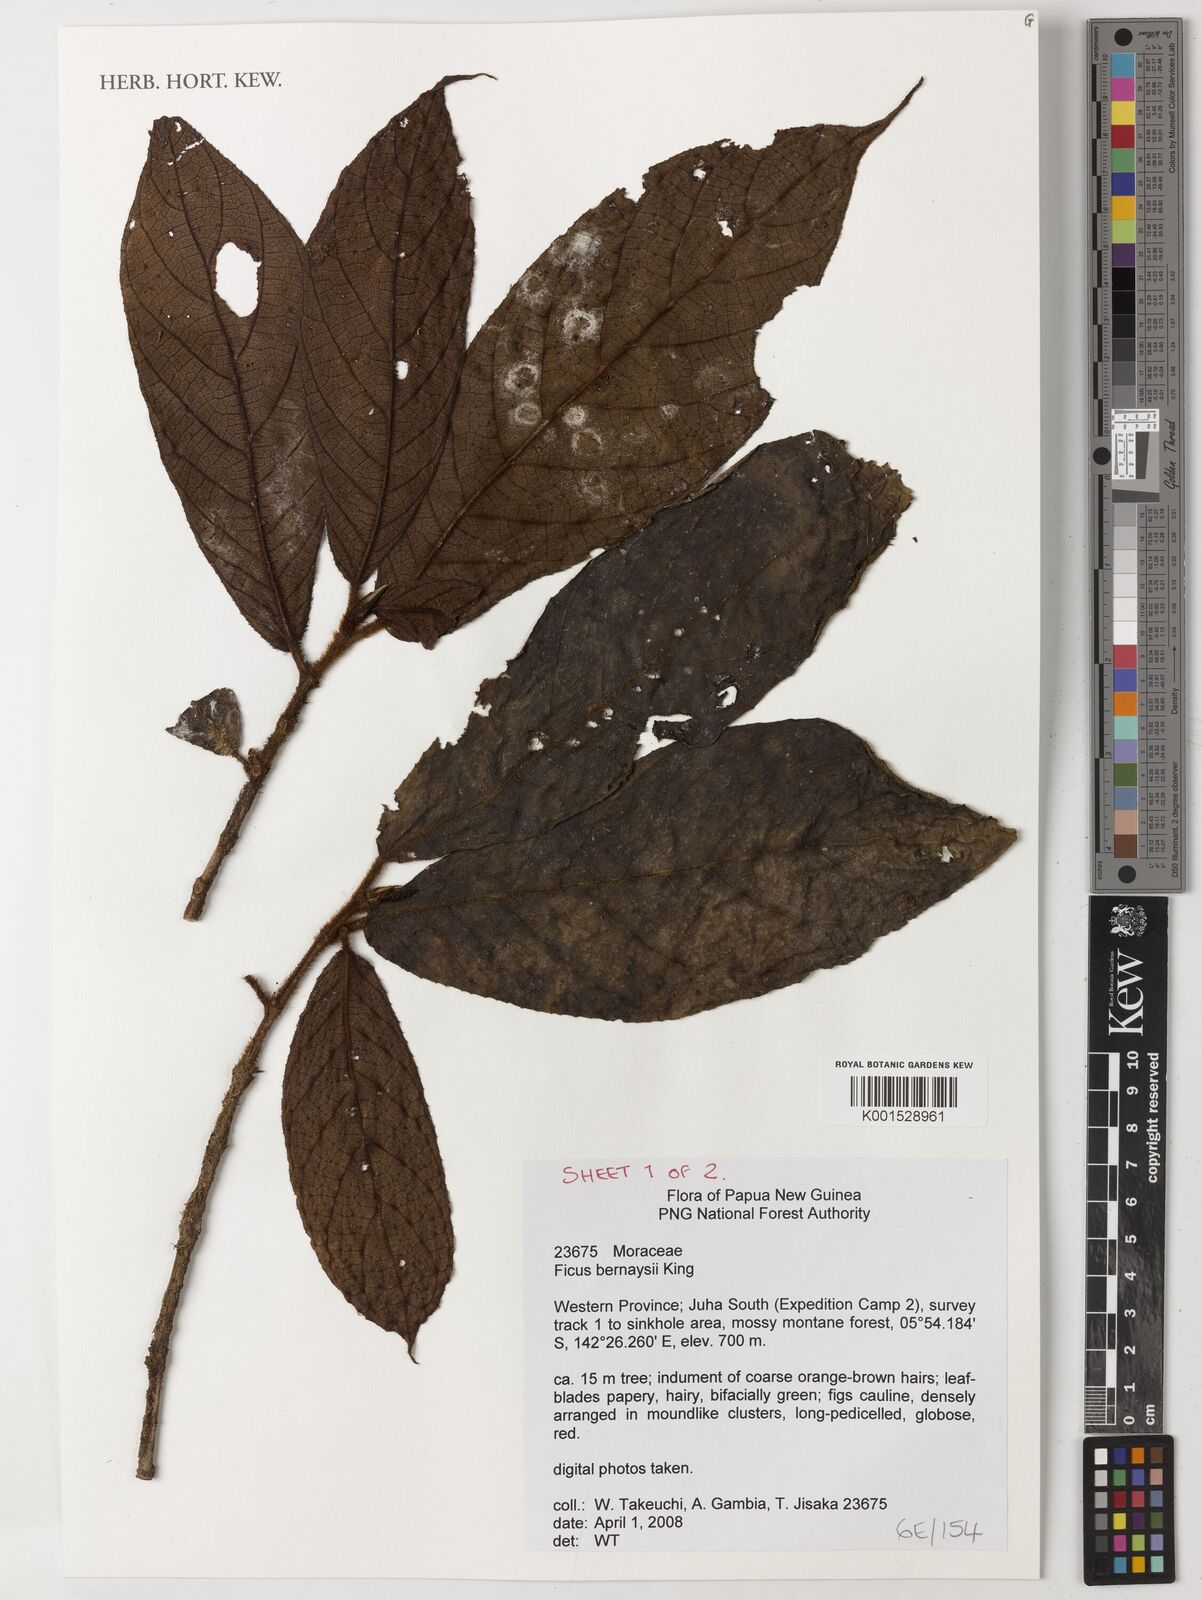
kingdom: Plantae
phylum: Tracheophyta
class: Magnoliopsida
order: Rosales
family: Moraceae
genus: Ficus
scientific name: Ficus bernaysii
